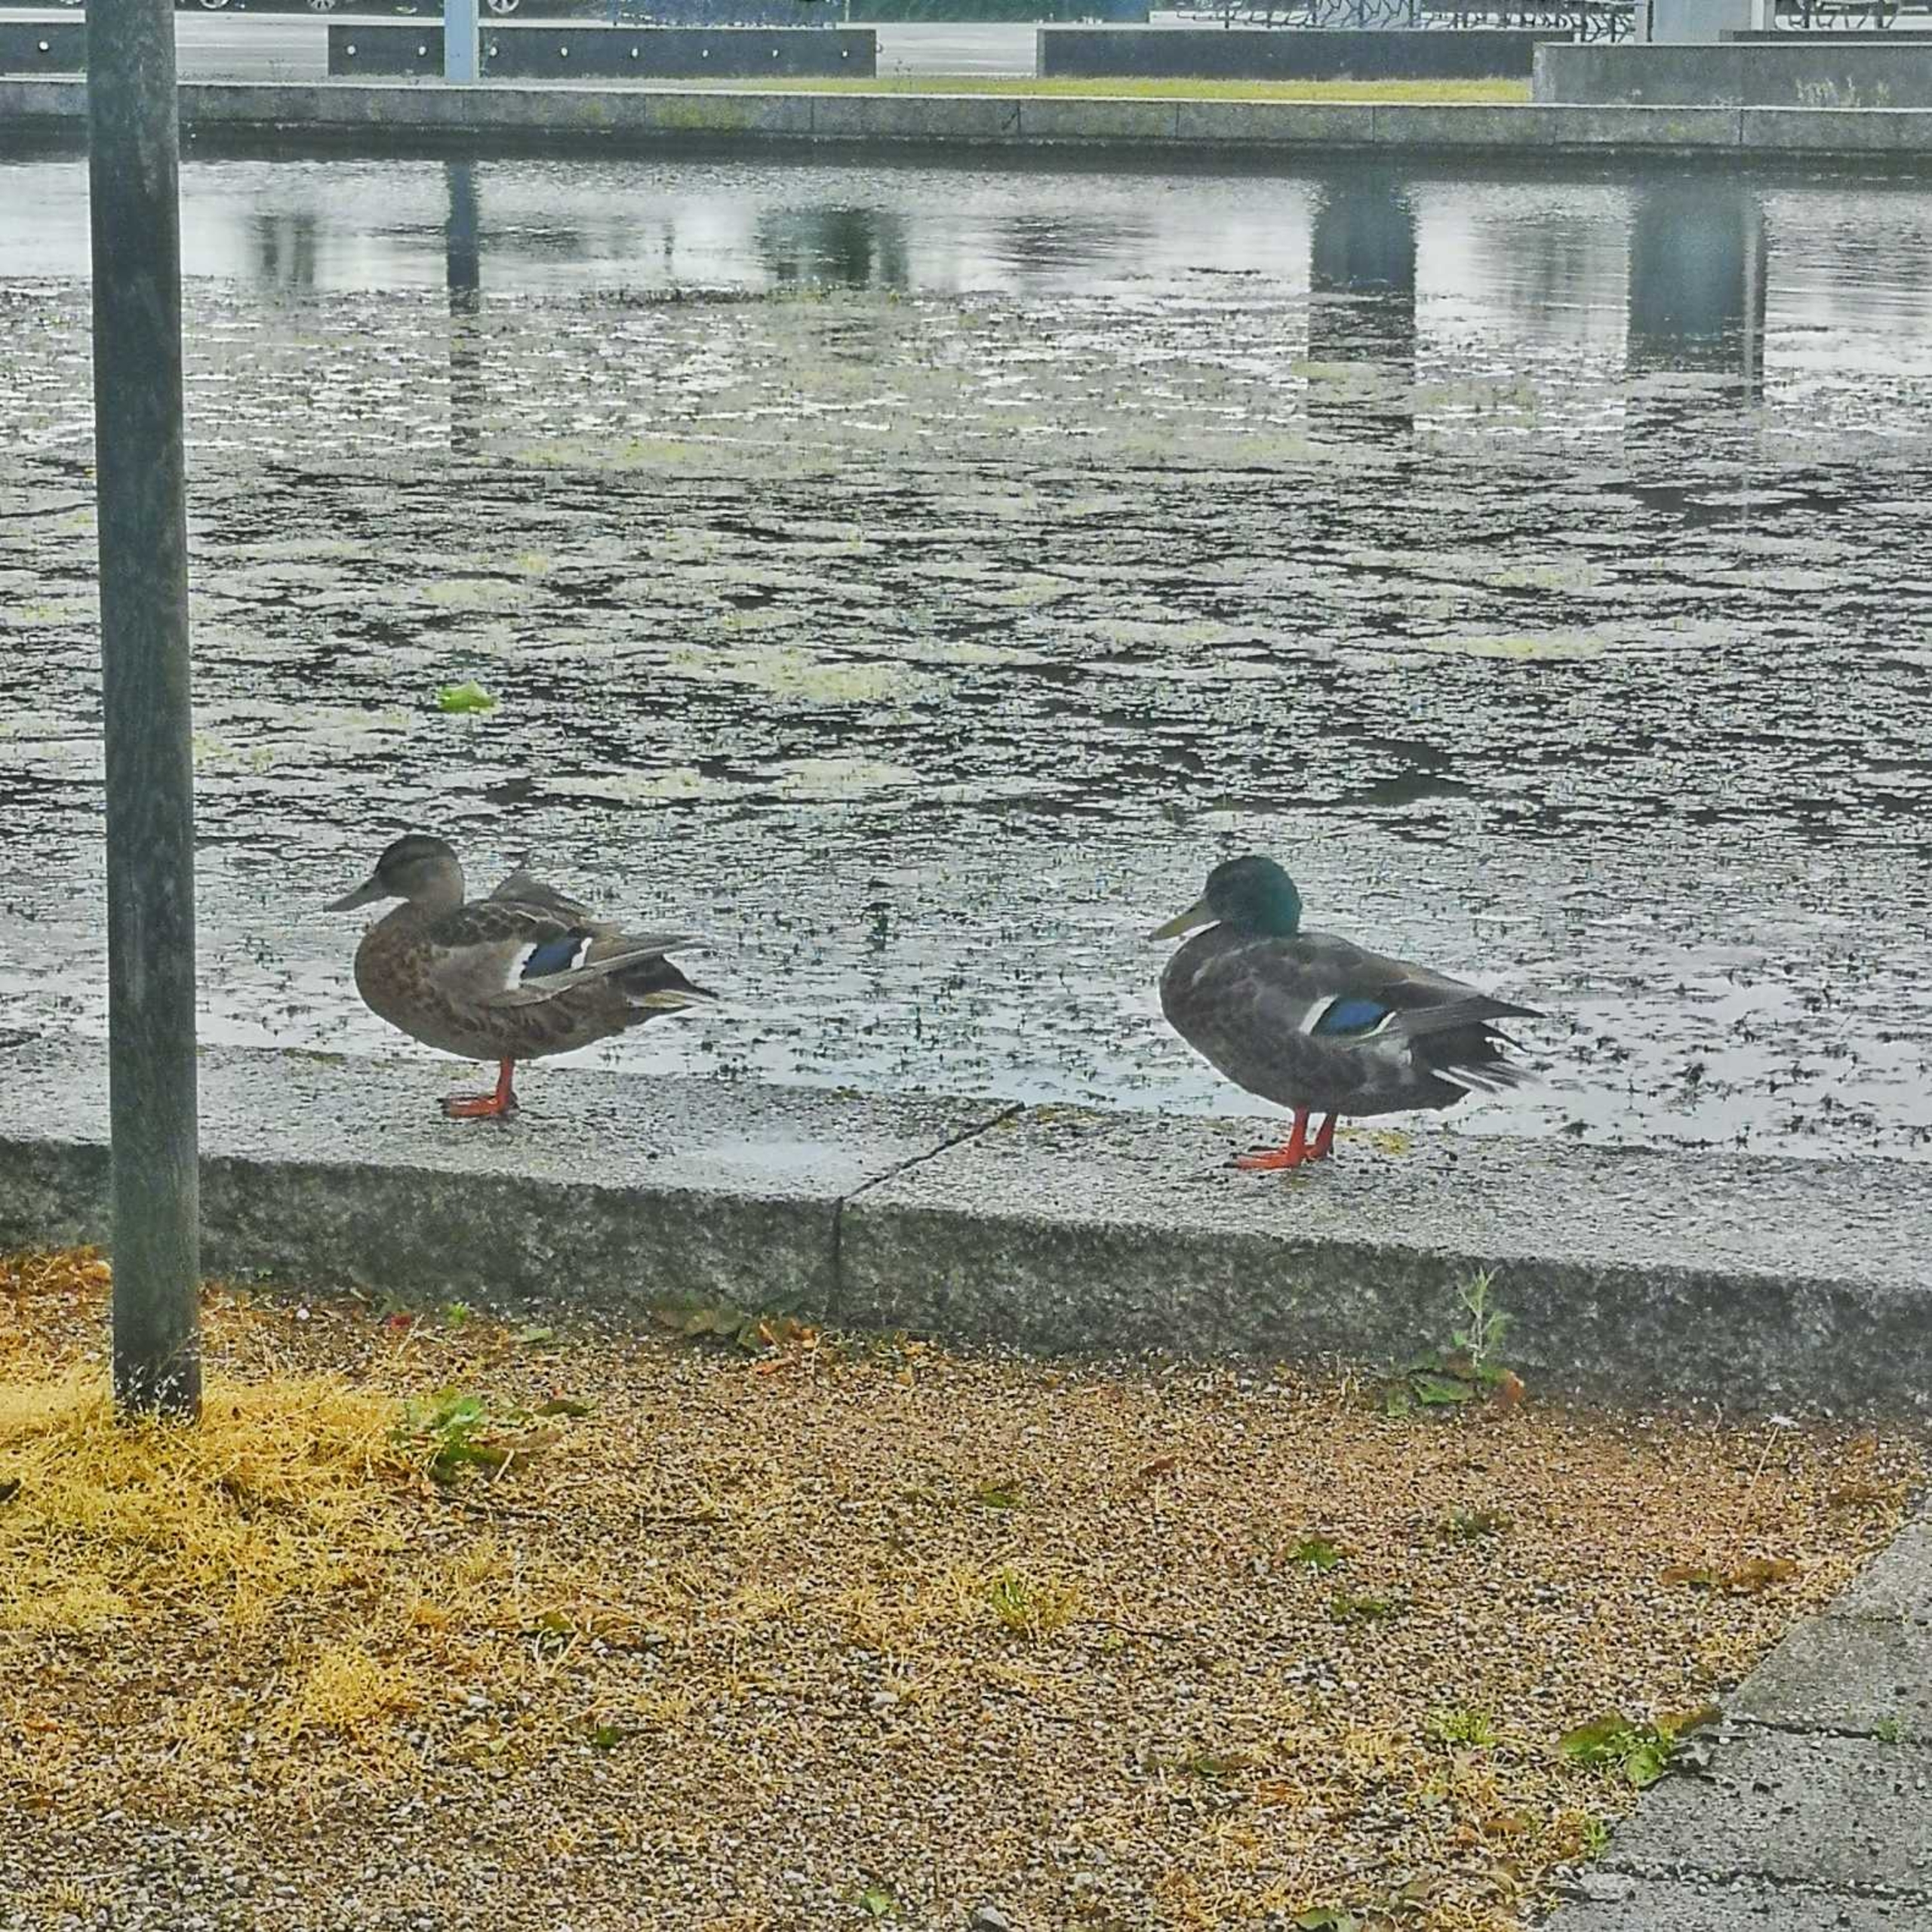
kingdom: Animalia
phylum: Chordata
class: Aves
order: Anseriformes
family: Anatidae
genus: Anas
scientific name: Anas platyrhynchos
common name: Gråand
